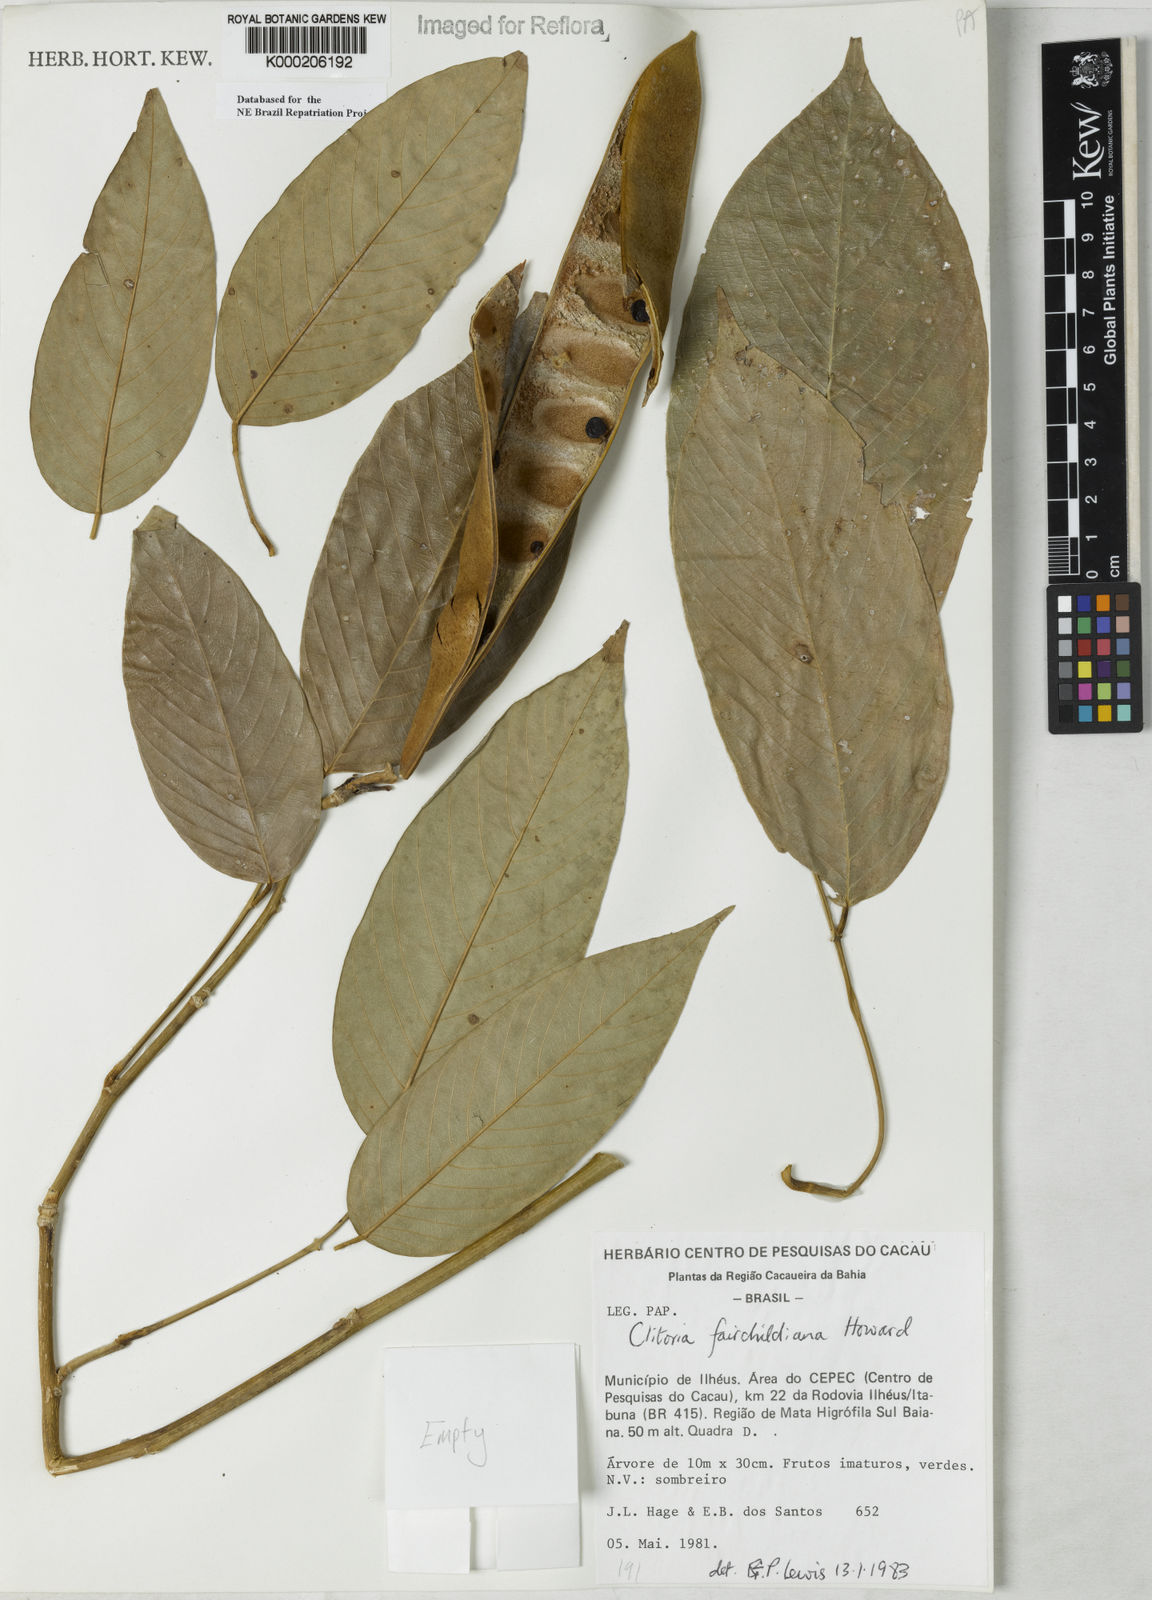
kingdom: Plantae
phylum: Tracheophyta
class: Magnoliopsida
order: Fabales
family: Fabaceae
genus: Clitoria
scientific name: Clitoria fairchildiana
